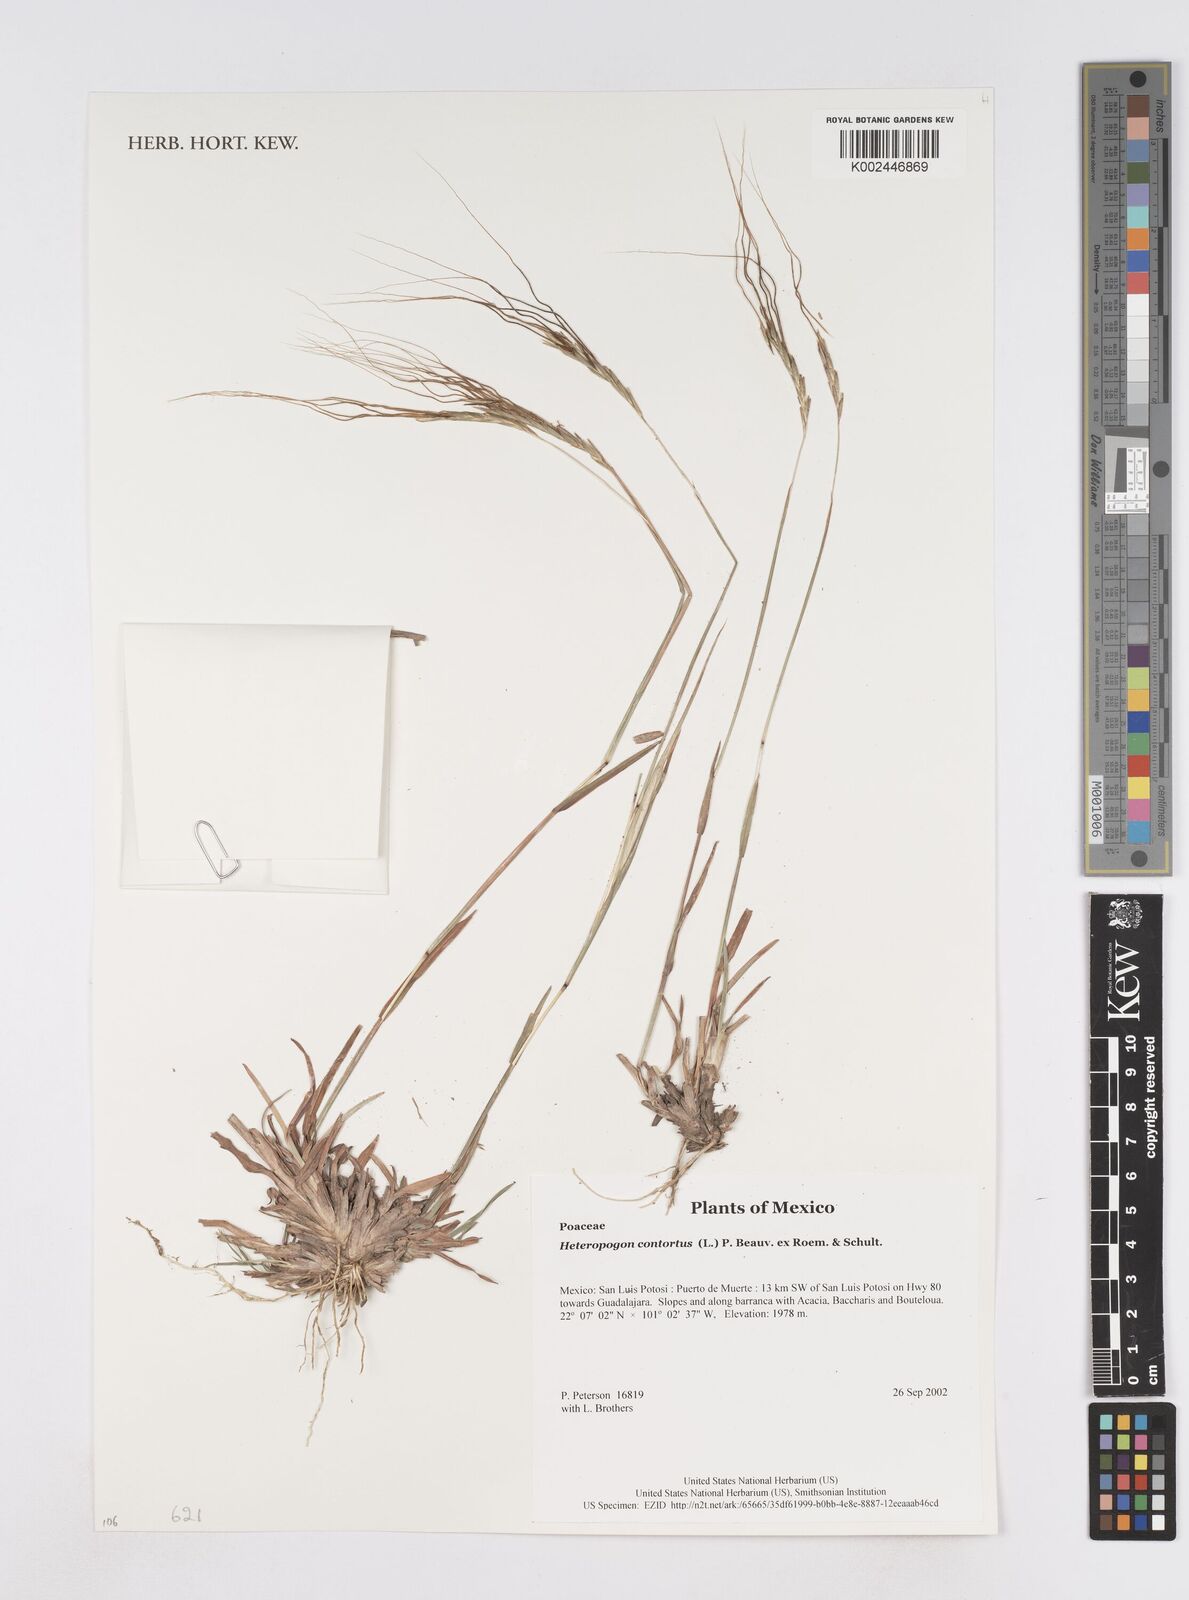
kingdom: Plantae
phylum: Tracheophyta
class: Liliopsida
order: Poales
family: Poaceae
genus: Heteropogon
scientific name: Heteropogon contortus
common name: Tanglehead
